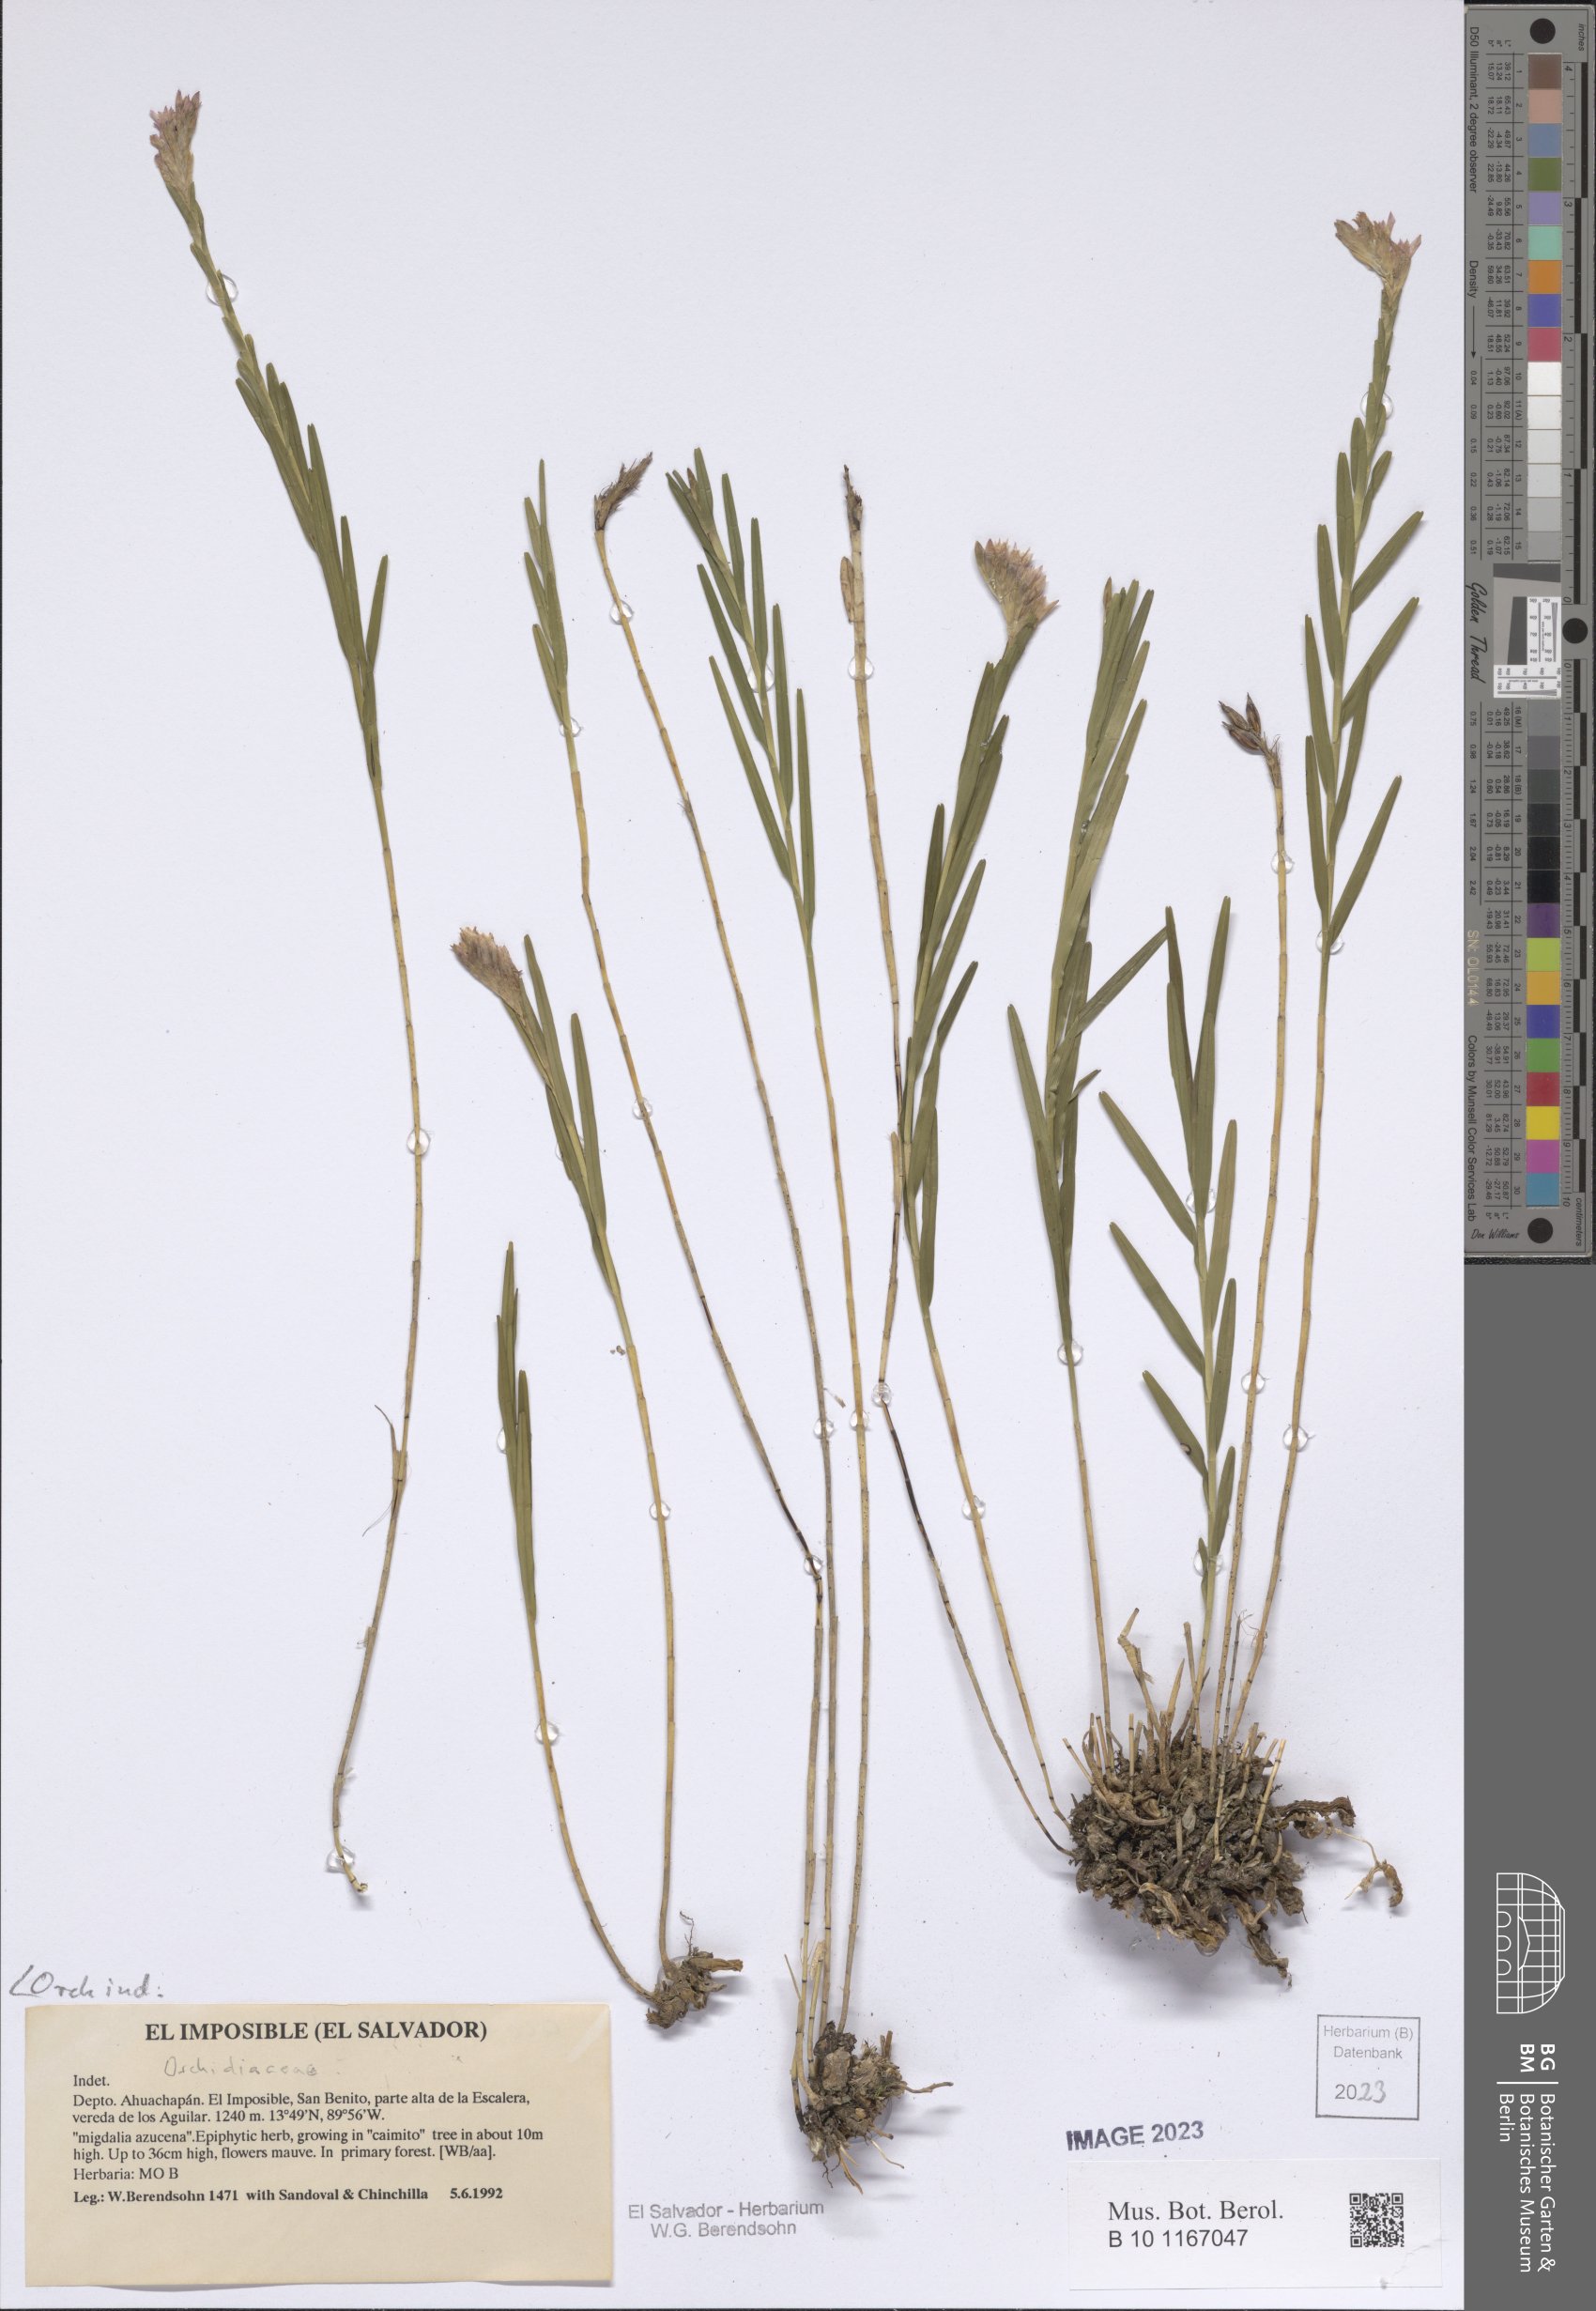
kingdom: Plantae
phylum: Tracheophyta
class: Liliopsida
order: Asparagales
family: Orchidaceae
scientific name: Orchidaceae
